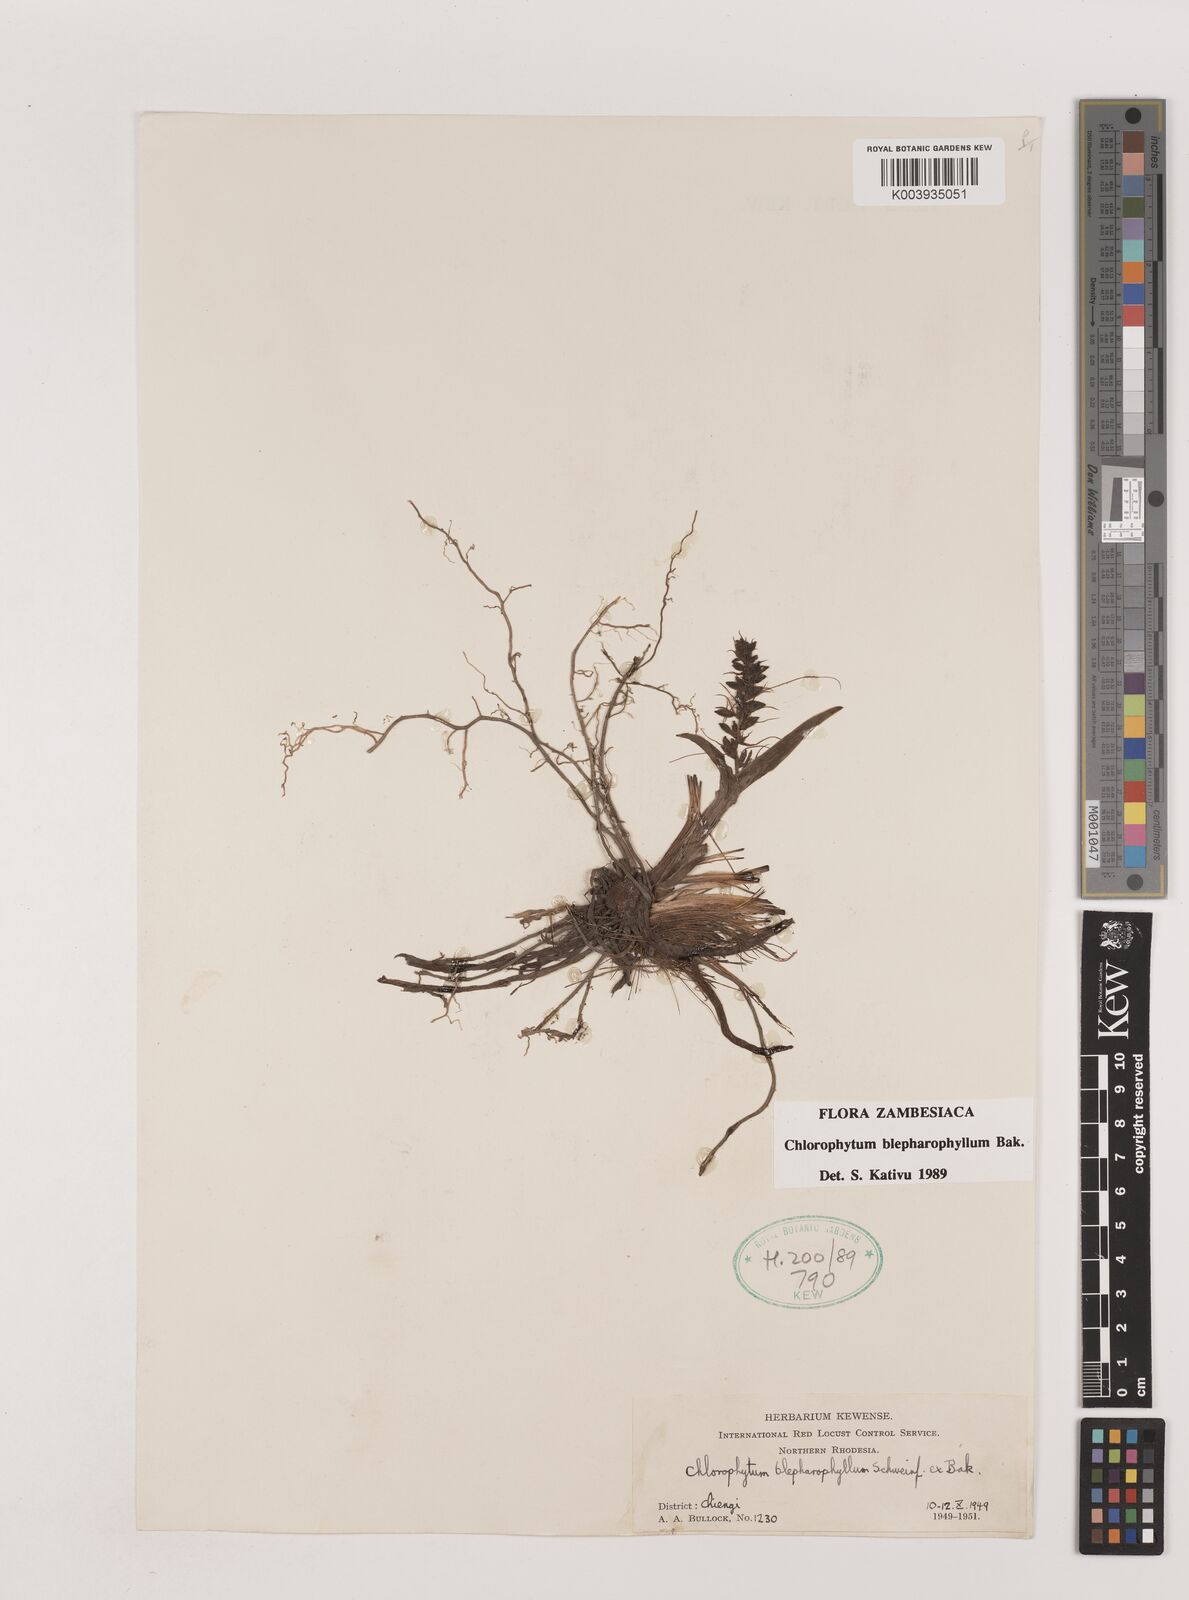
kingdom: Plantae
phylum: Tracheophyta
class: Liliopsida
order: Asparagales
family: Asparagaceae
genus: Chlorophytum
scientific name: Chlorophytum blepharophyllum
